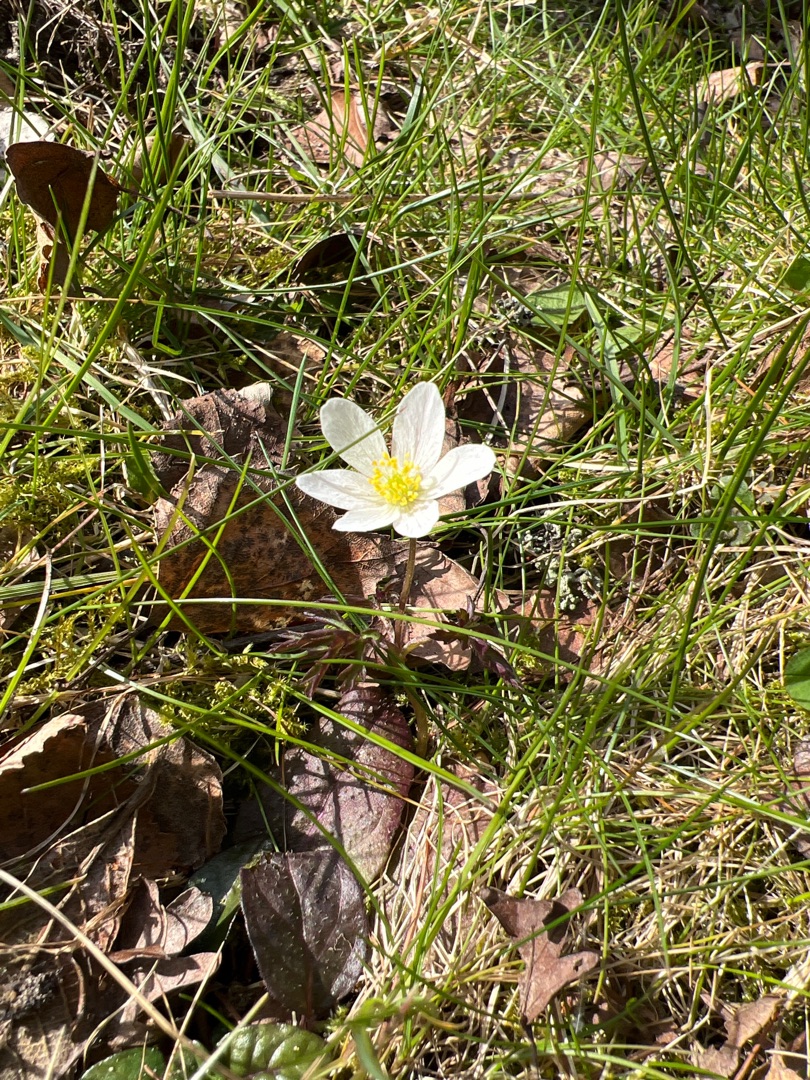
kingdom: Plantae
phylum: Tracheophyta
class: Magnoliopsida
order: Ranunculales
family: Ranunculaceae
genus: Anemone
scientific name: Anemone nemorosa
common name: Hvid anemone
